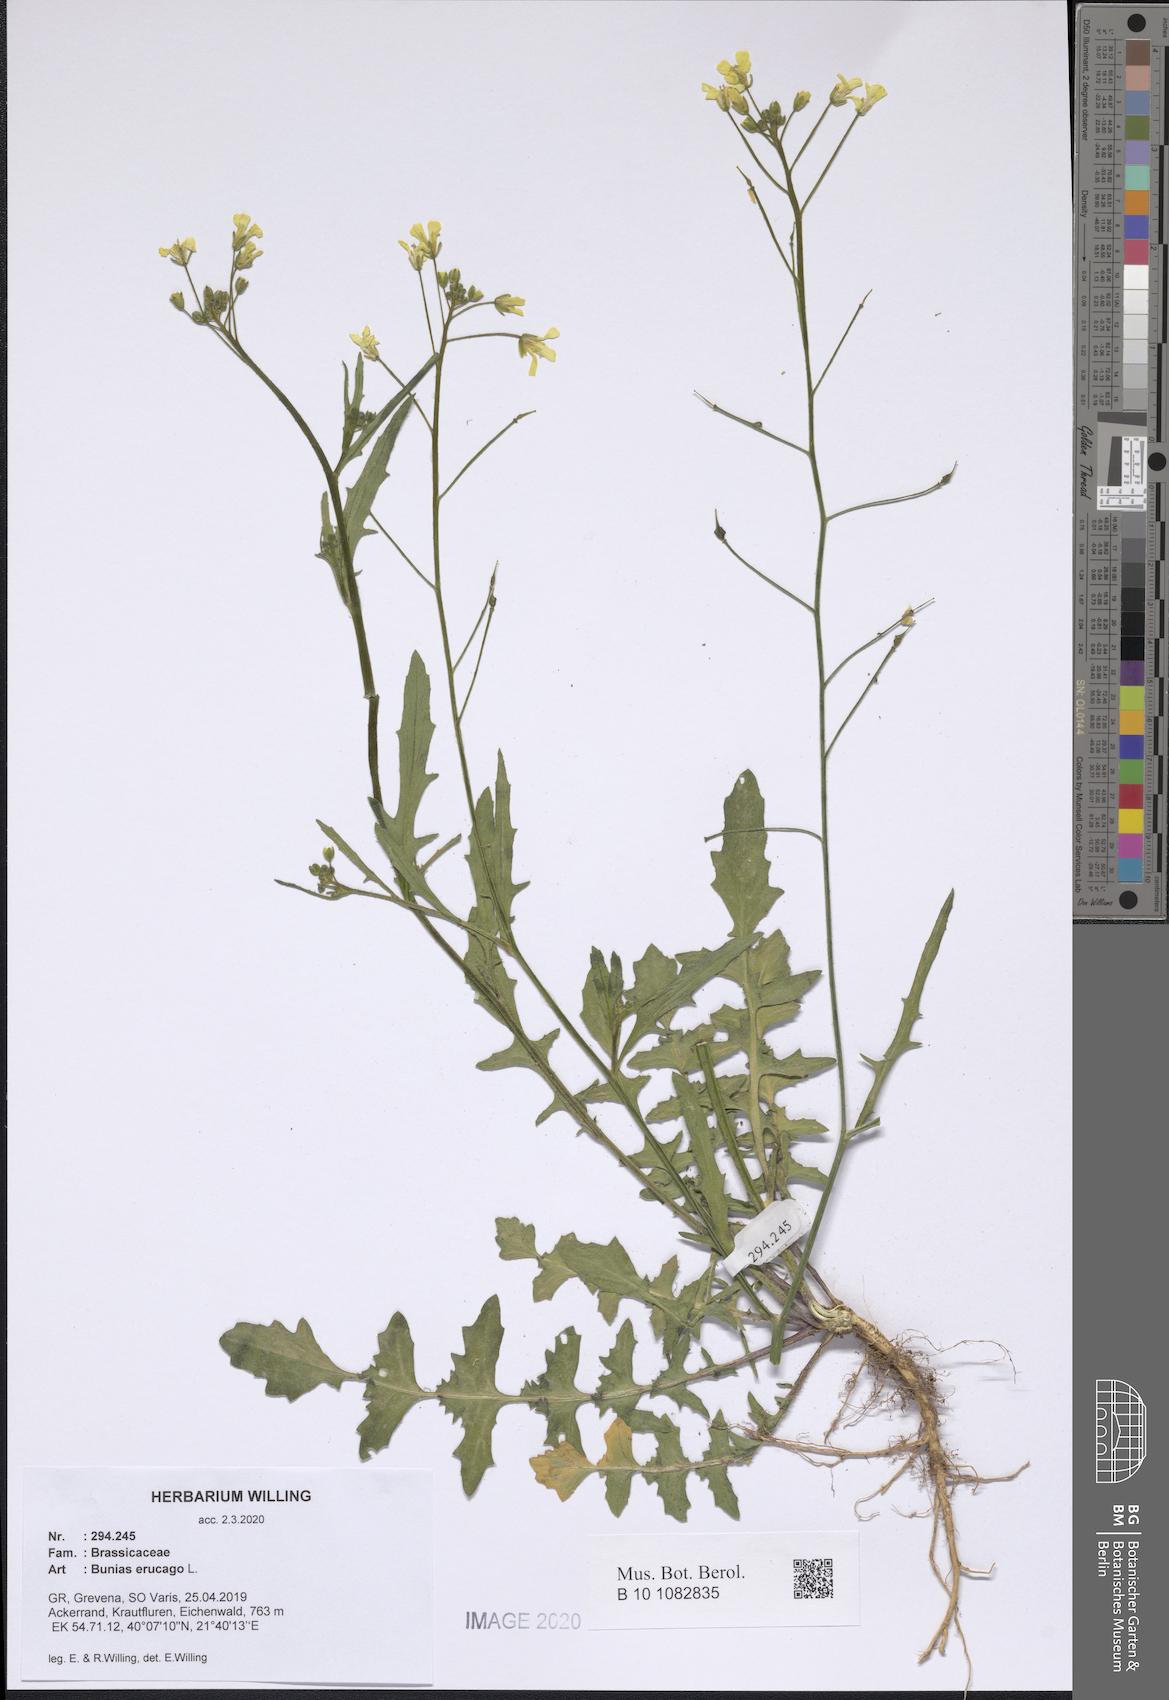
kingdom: Plantae
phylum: Tracheophyta
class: Magnoliopsida
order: Brassicales
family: Brassicaceae
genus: Bunias
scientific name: Bunias erucago
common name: Southern warty-cabbage
